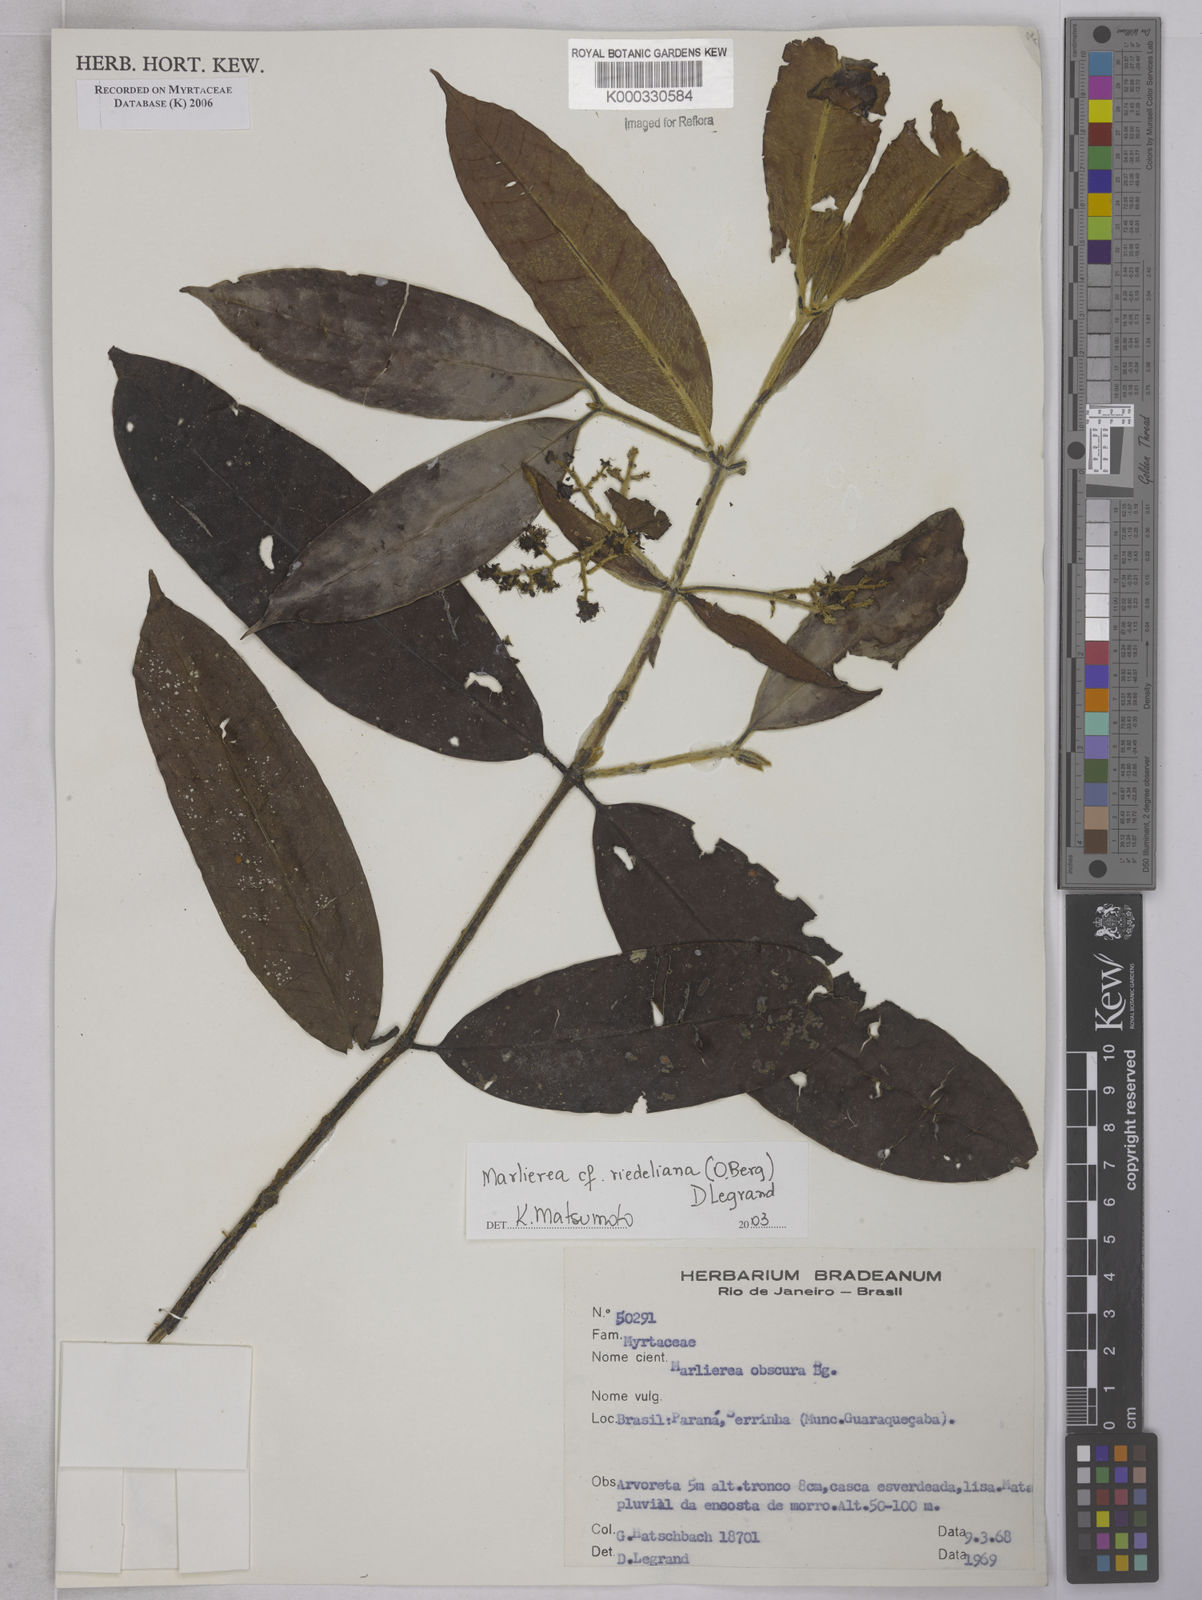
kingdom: Plantae
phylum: Tracheophyta
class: Magnoliopsida
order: Myrtales
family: Myrtaceae
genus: Myrcia
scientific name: Myrcia neoriedeliana
